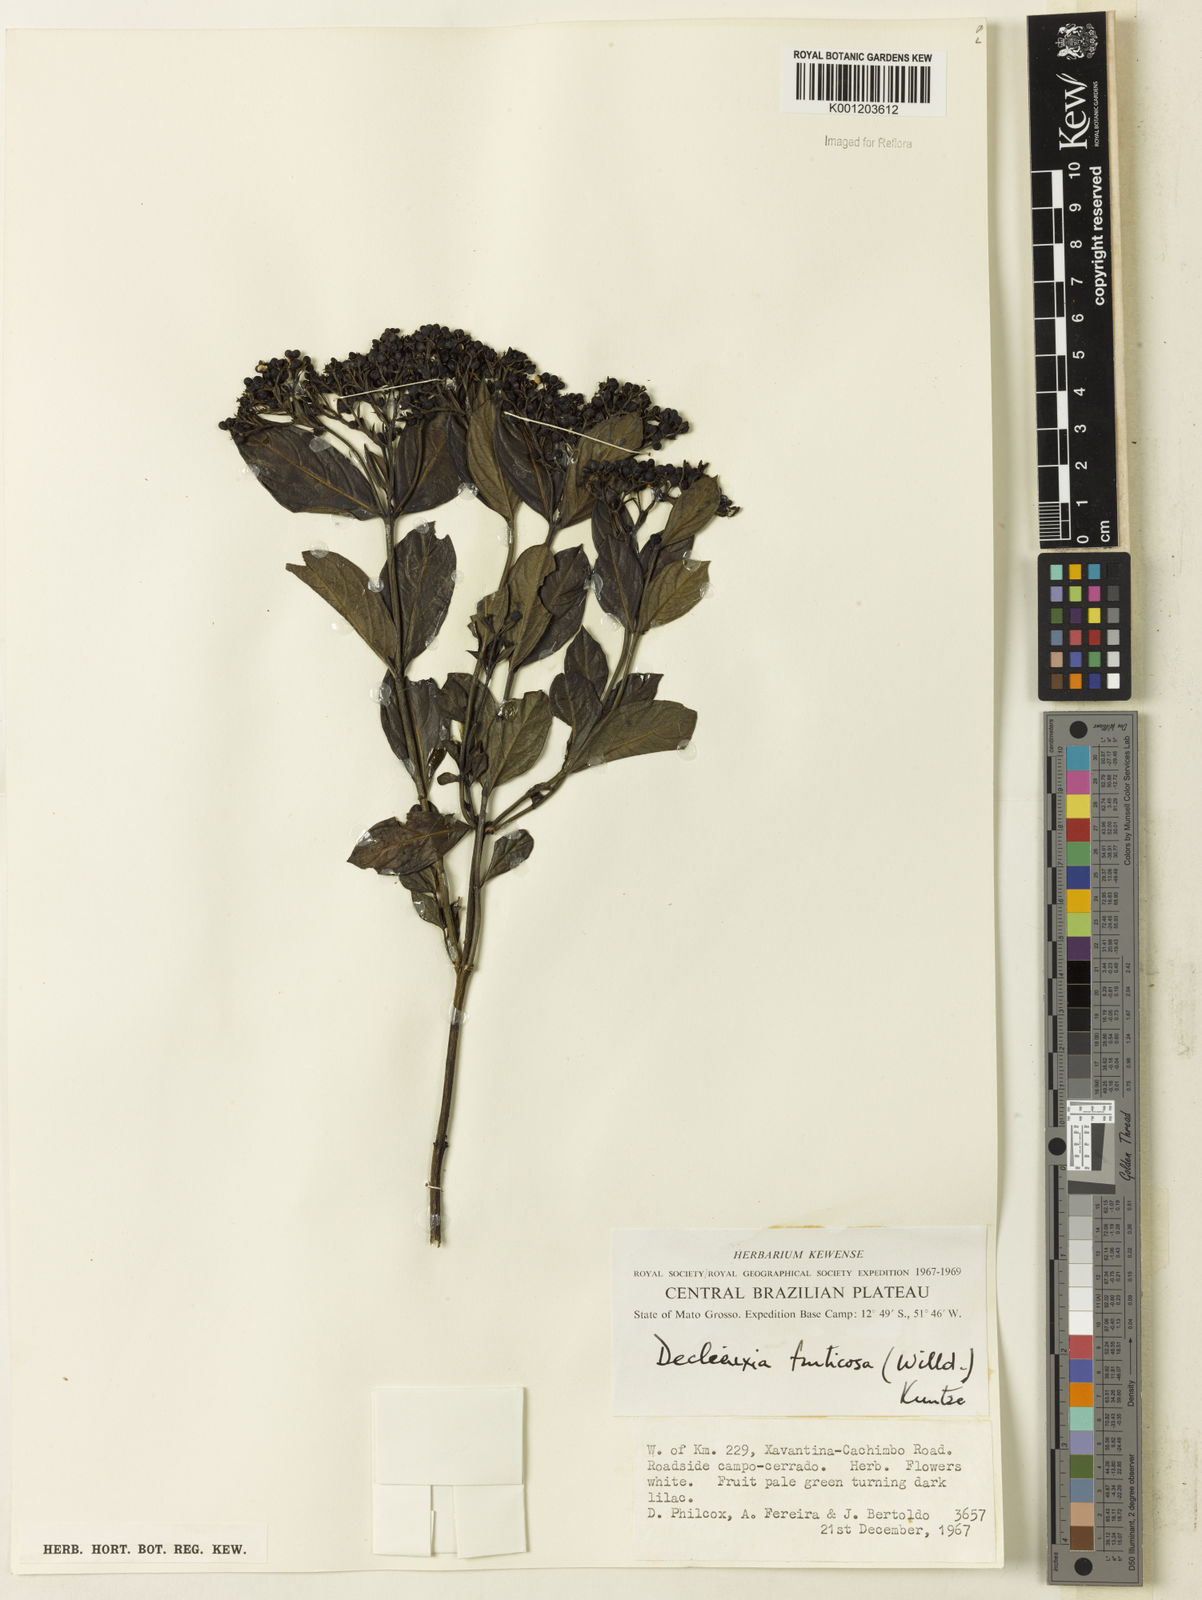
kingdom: Plantae
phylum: Tracheophyta
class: Magnoliopsida
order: Gentianales
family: Rubiaceae
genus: Declieuxia
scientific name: Declieuxia fruticosa
